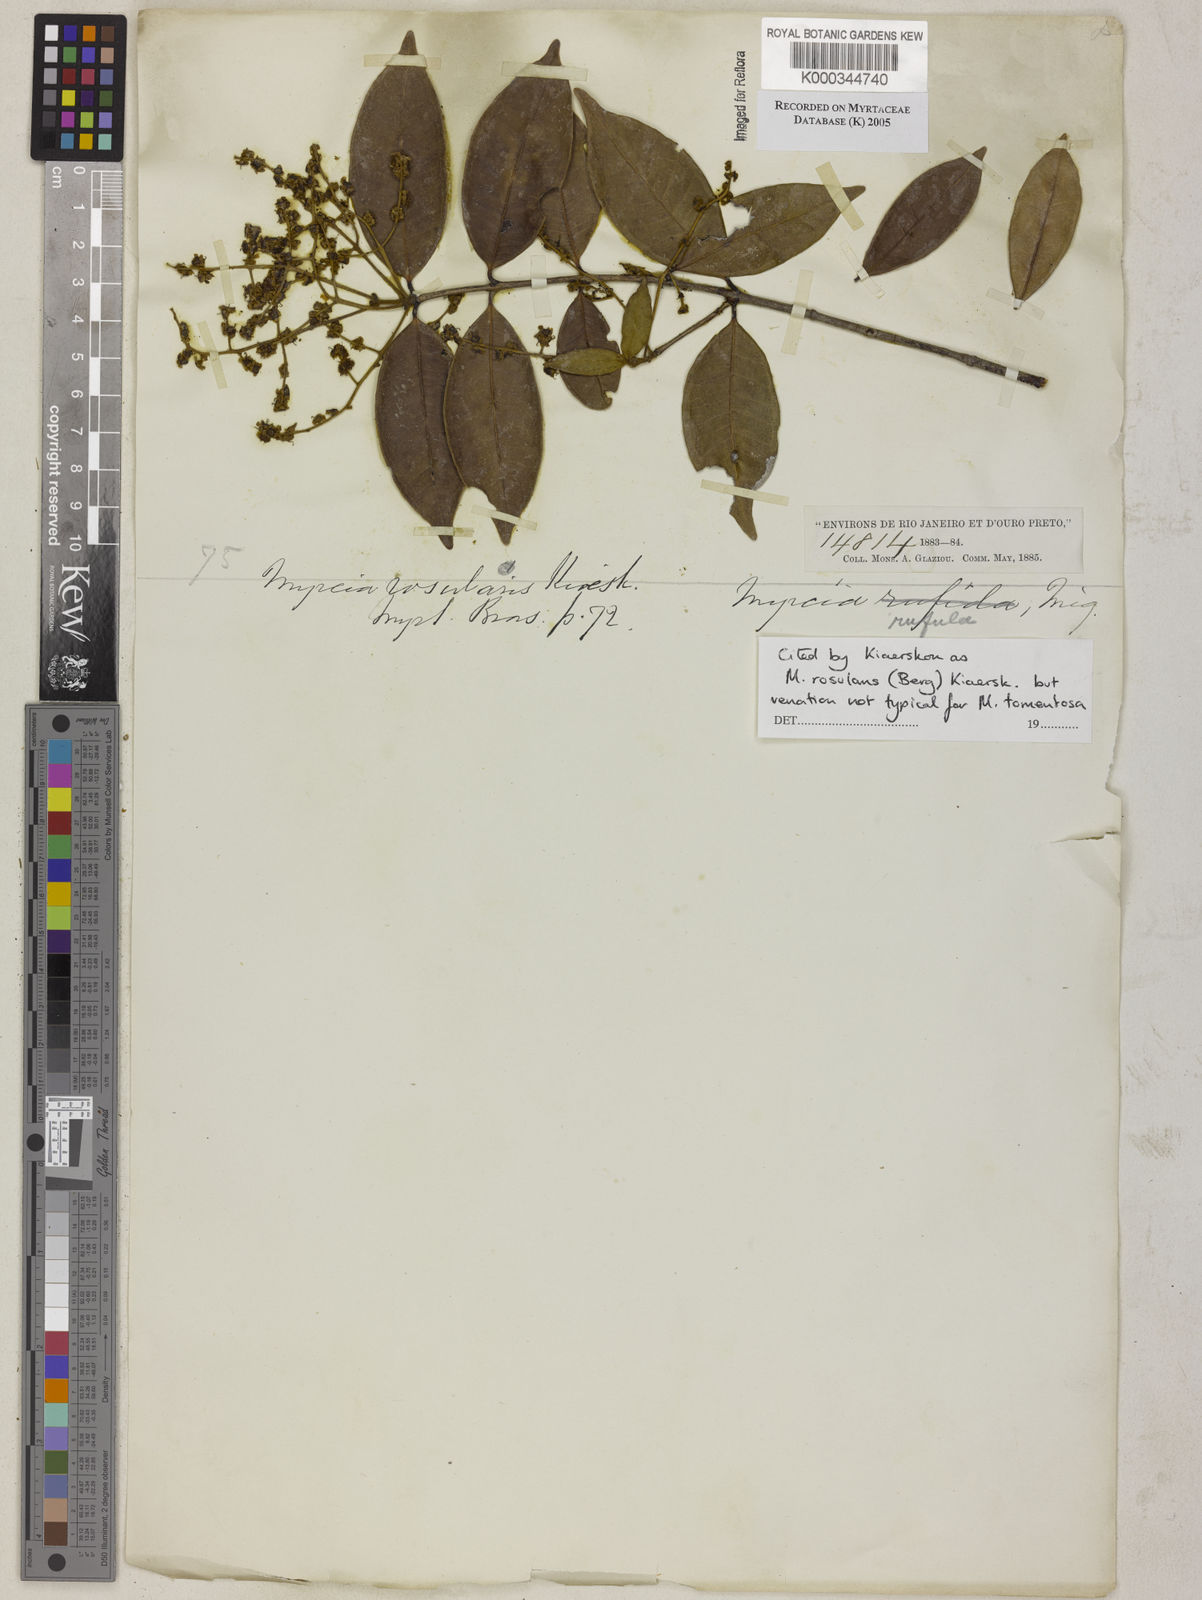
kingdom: Plantae
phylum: Tracheophyta
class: Magnoliopsida
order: Myrtales
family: Myrtaceae
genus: Myrcia
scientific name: Myrcia tomentosa
